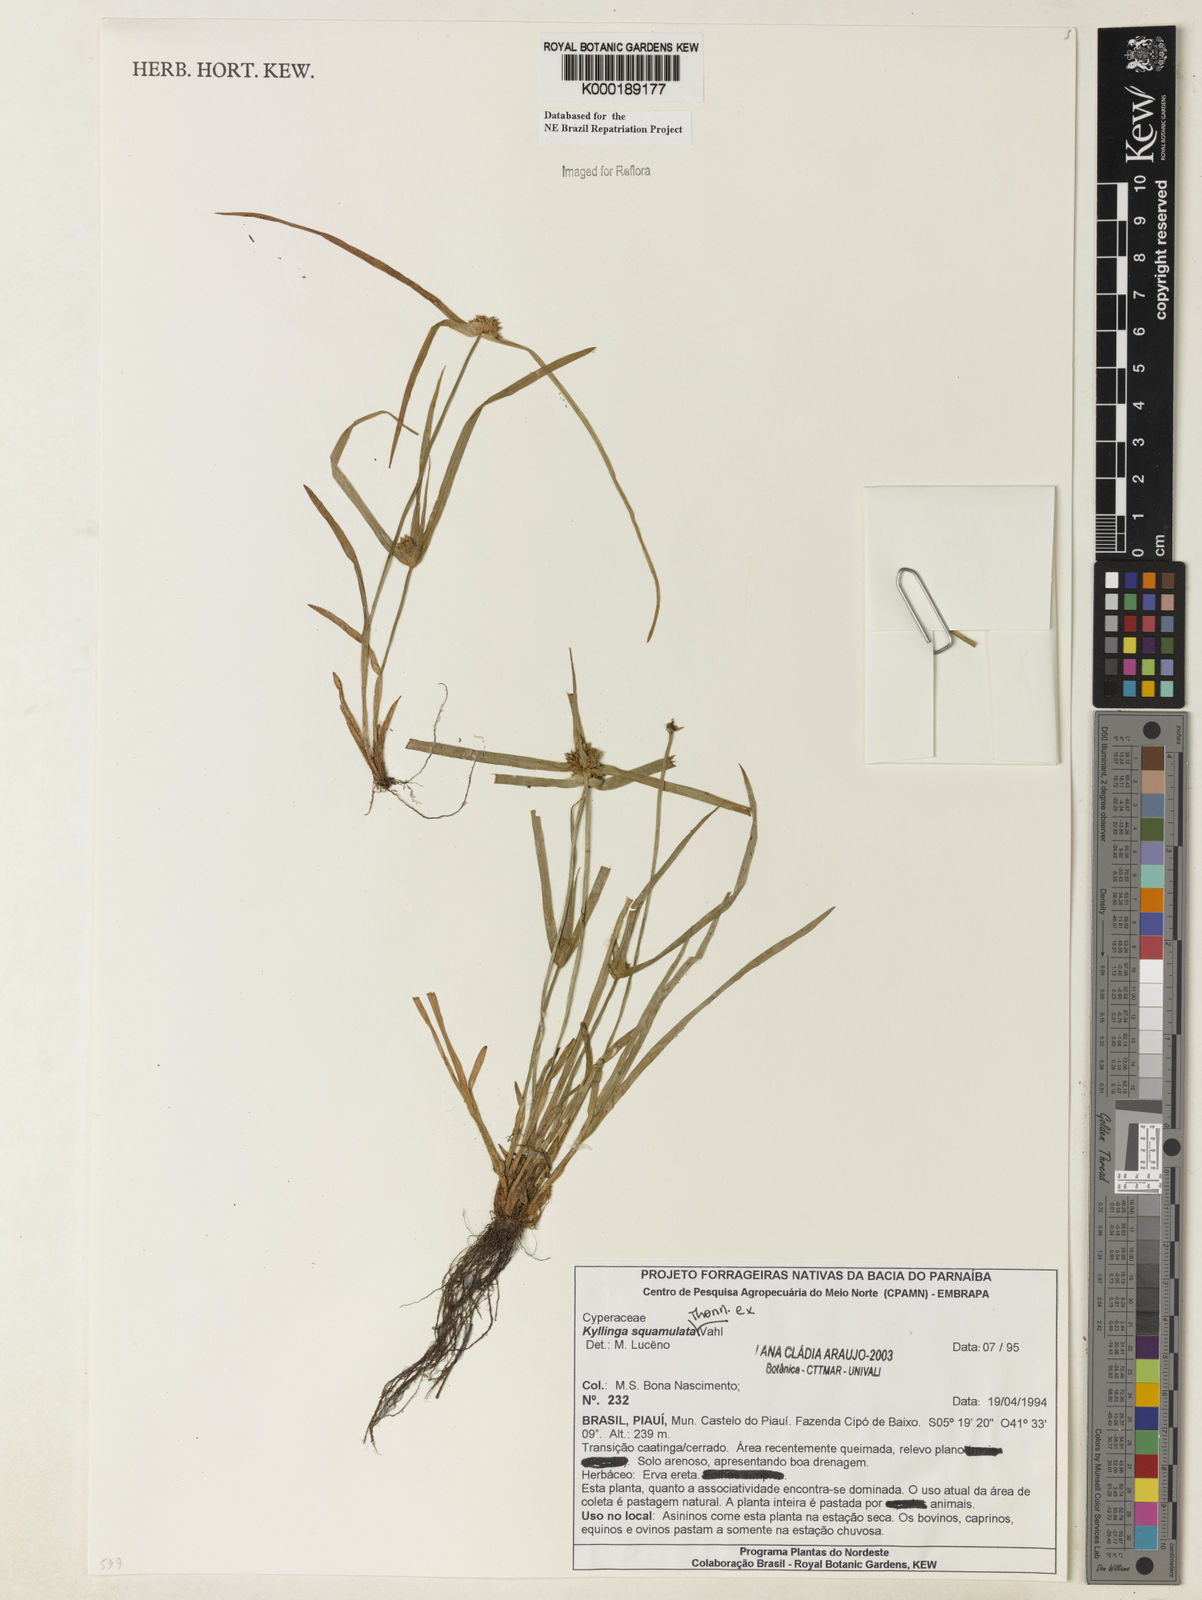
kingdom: Plantae
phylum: Tracheophyta
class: Liliopsida
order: Poales
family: Cyperaceae
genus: Cyperus
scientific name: Cyperus metzii
